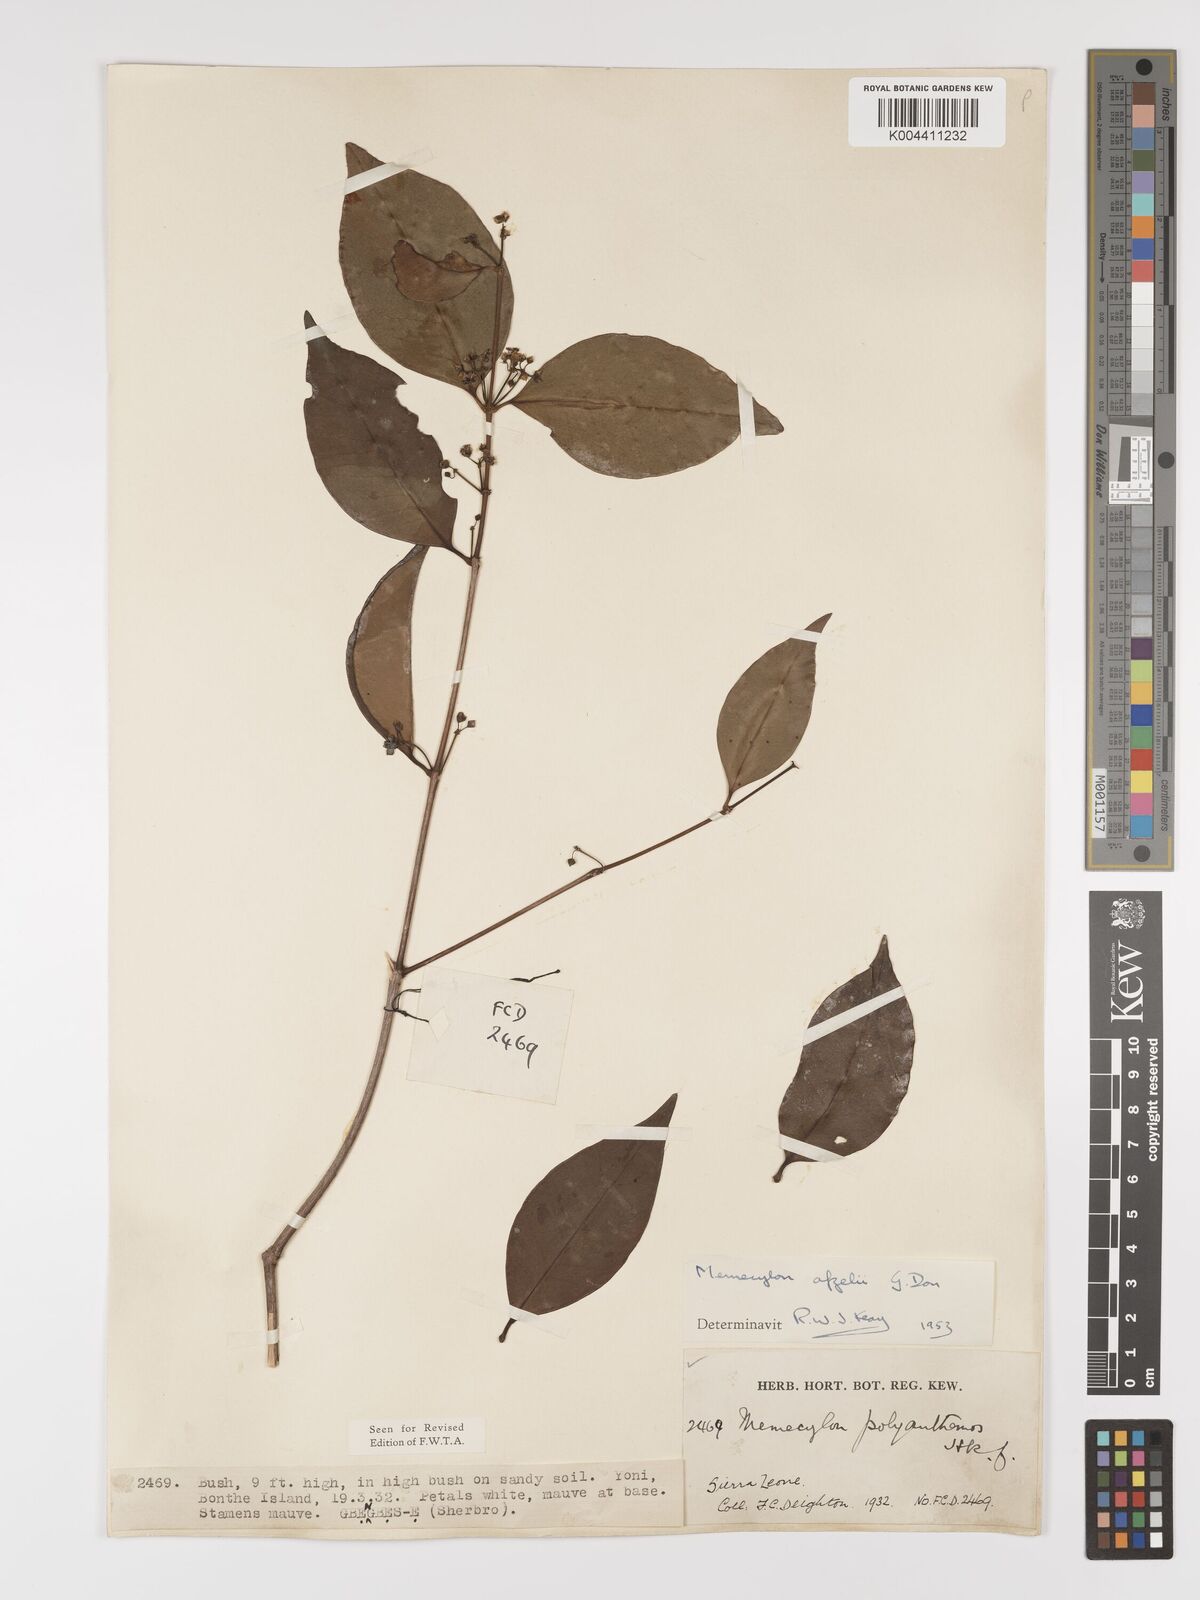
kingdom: Plantae
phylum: Tracheophyta
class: Magnoliopsida
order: Myrtales
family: Melastomataceae
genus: Memecylon
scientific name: Memecylon afzelii
